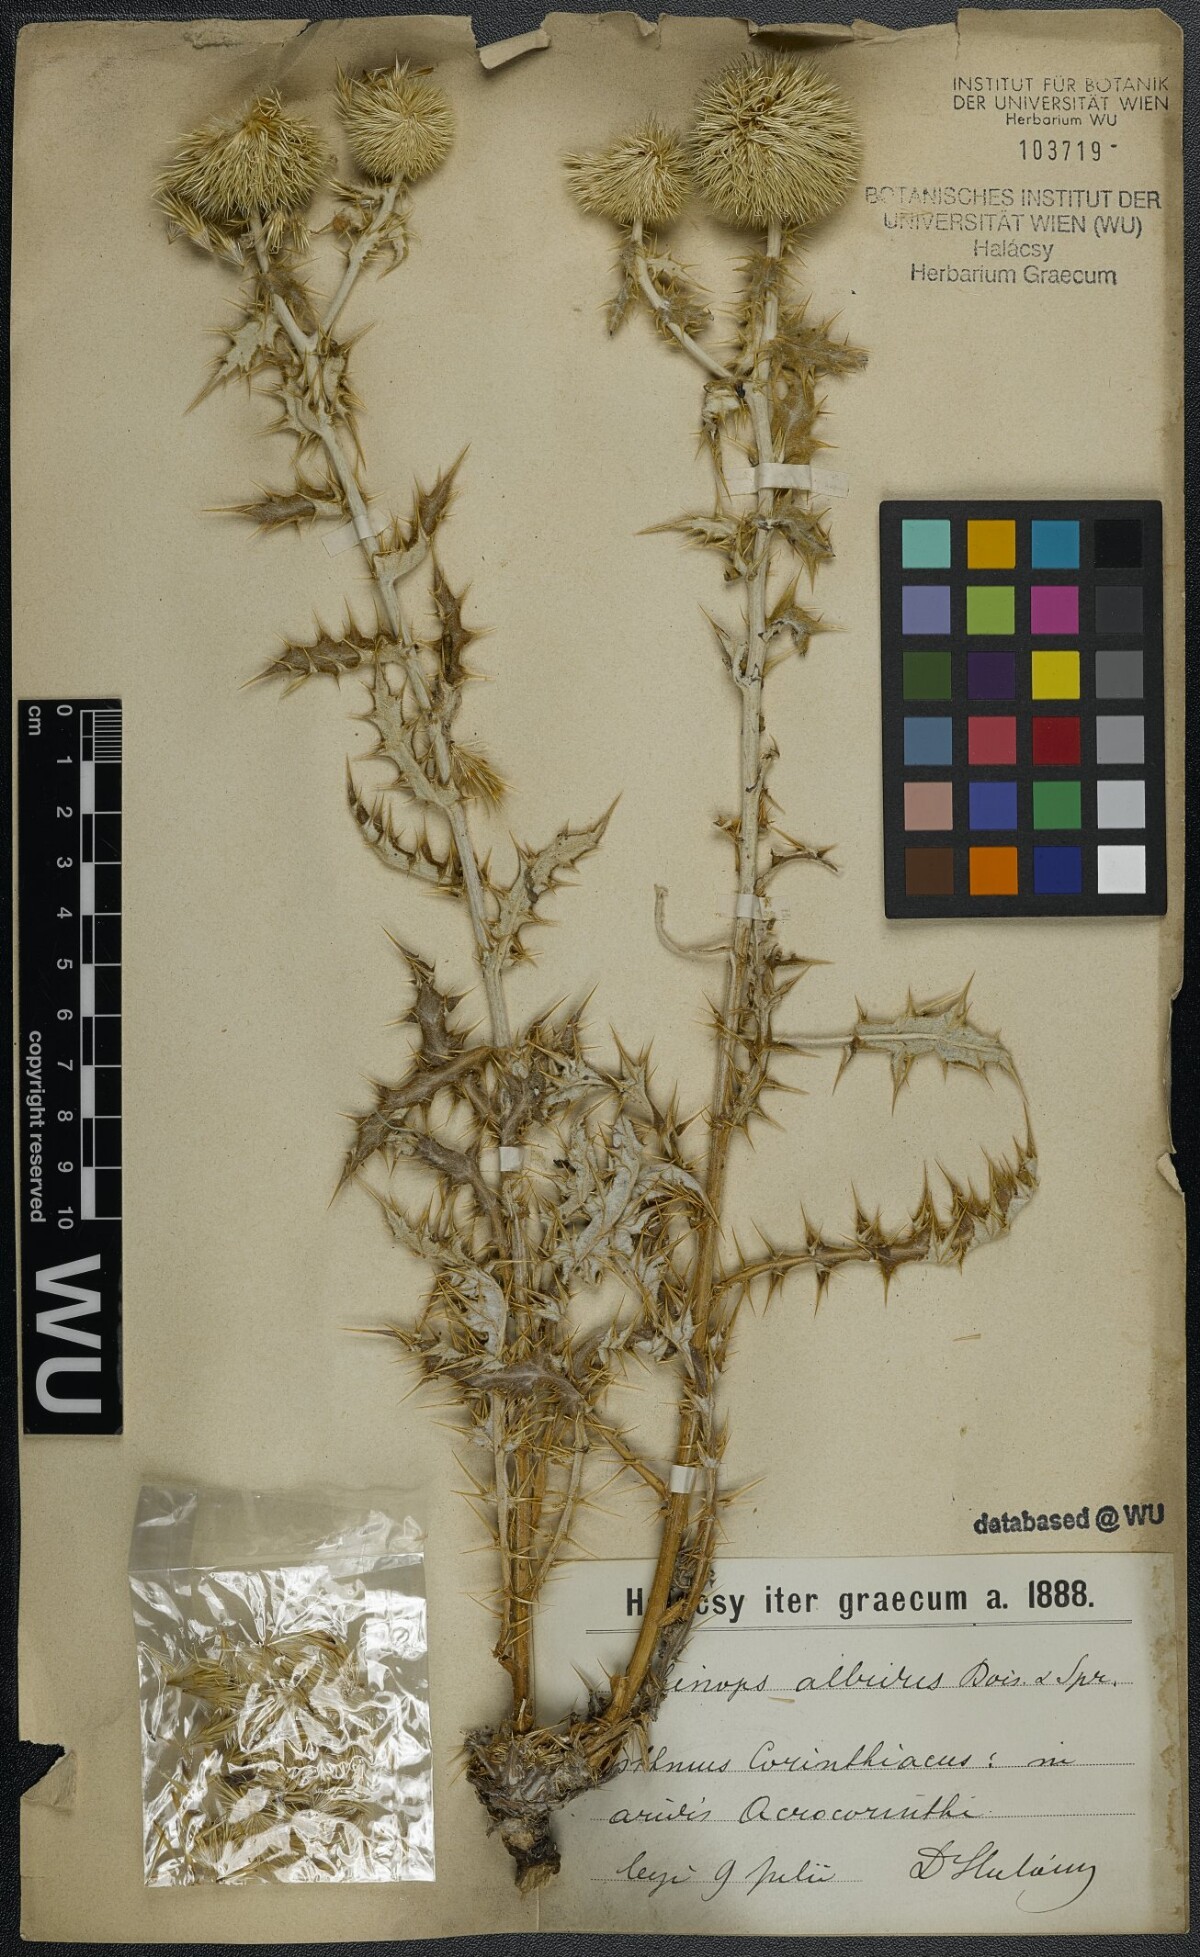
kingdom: Plantae
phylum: Tracheophyta
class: Magnoliopsida
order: Asterales
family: Asteraceae
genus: Echinops
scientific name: Echinops sphaerocephalus
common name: Glandular globe-thistle
